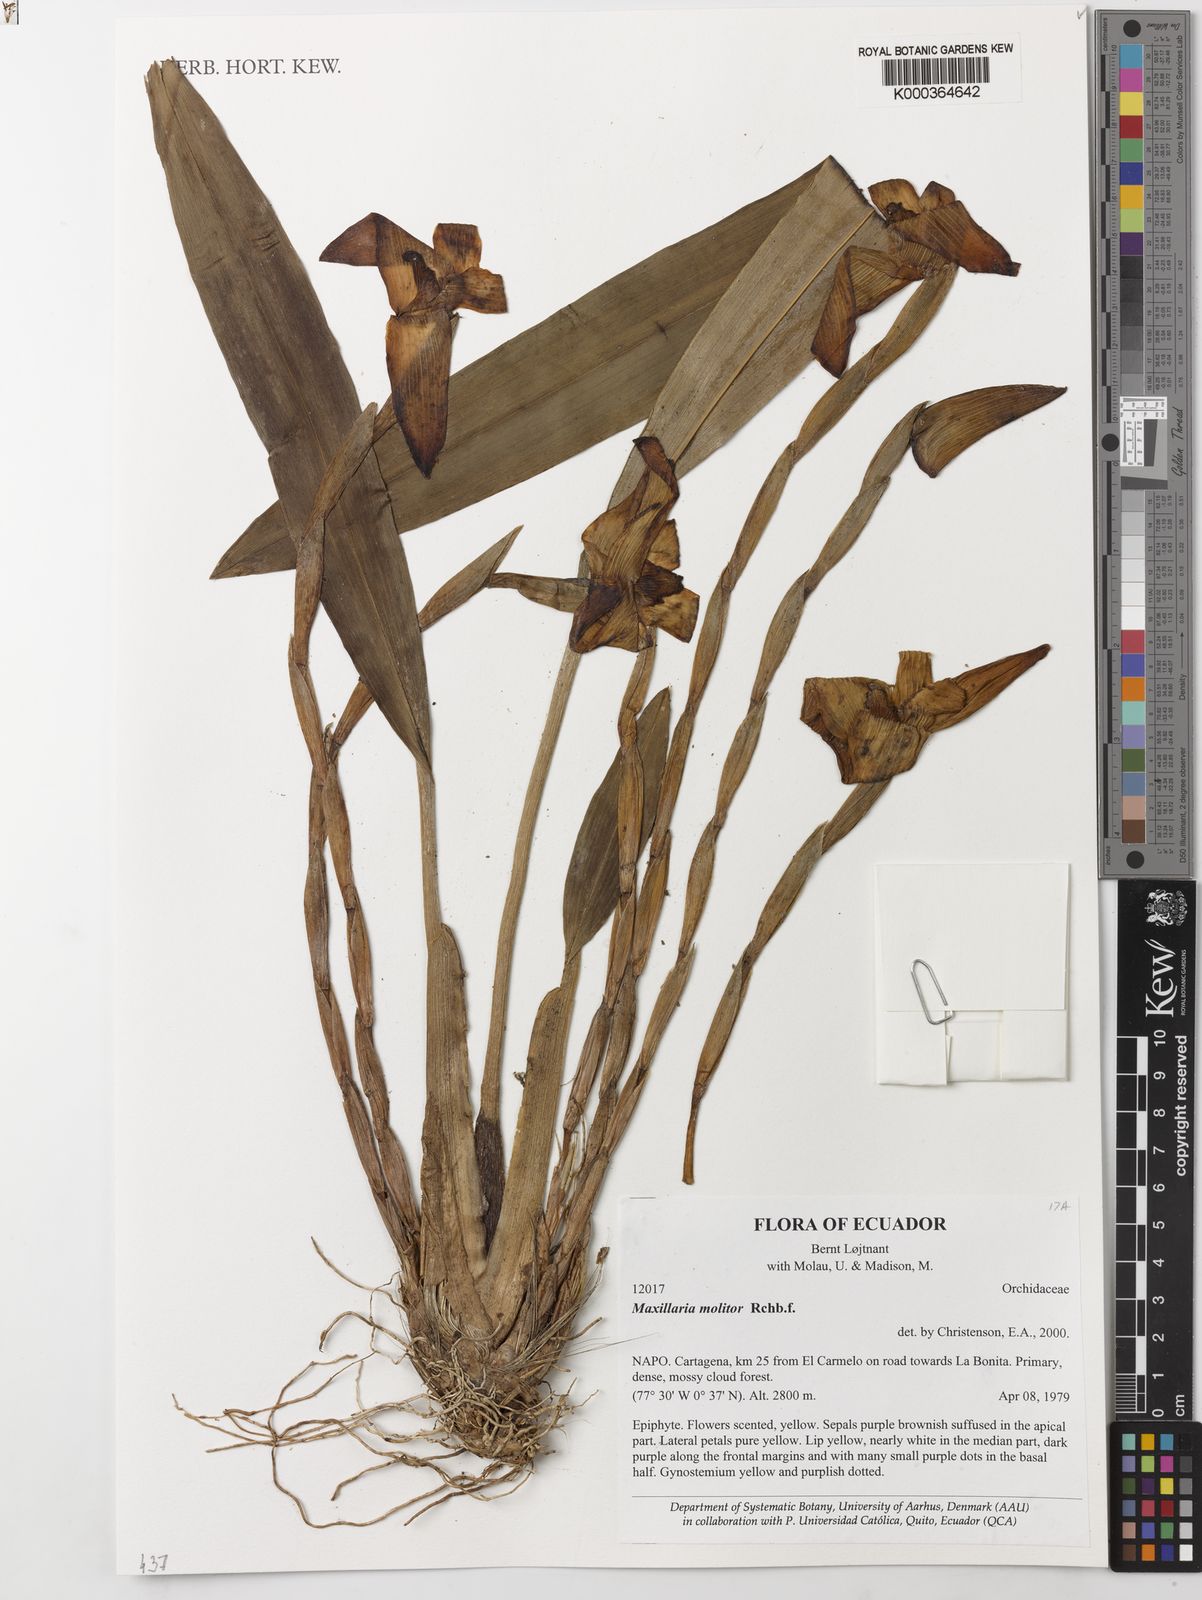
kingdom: Plantae
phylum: Tracheophyta
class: Liliopsida
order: Asparagales
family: Orchidaceae
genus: Maxillaria
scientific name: Maxillaria molitor
